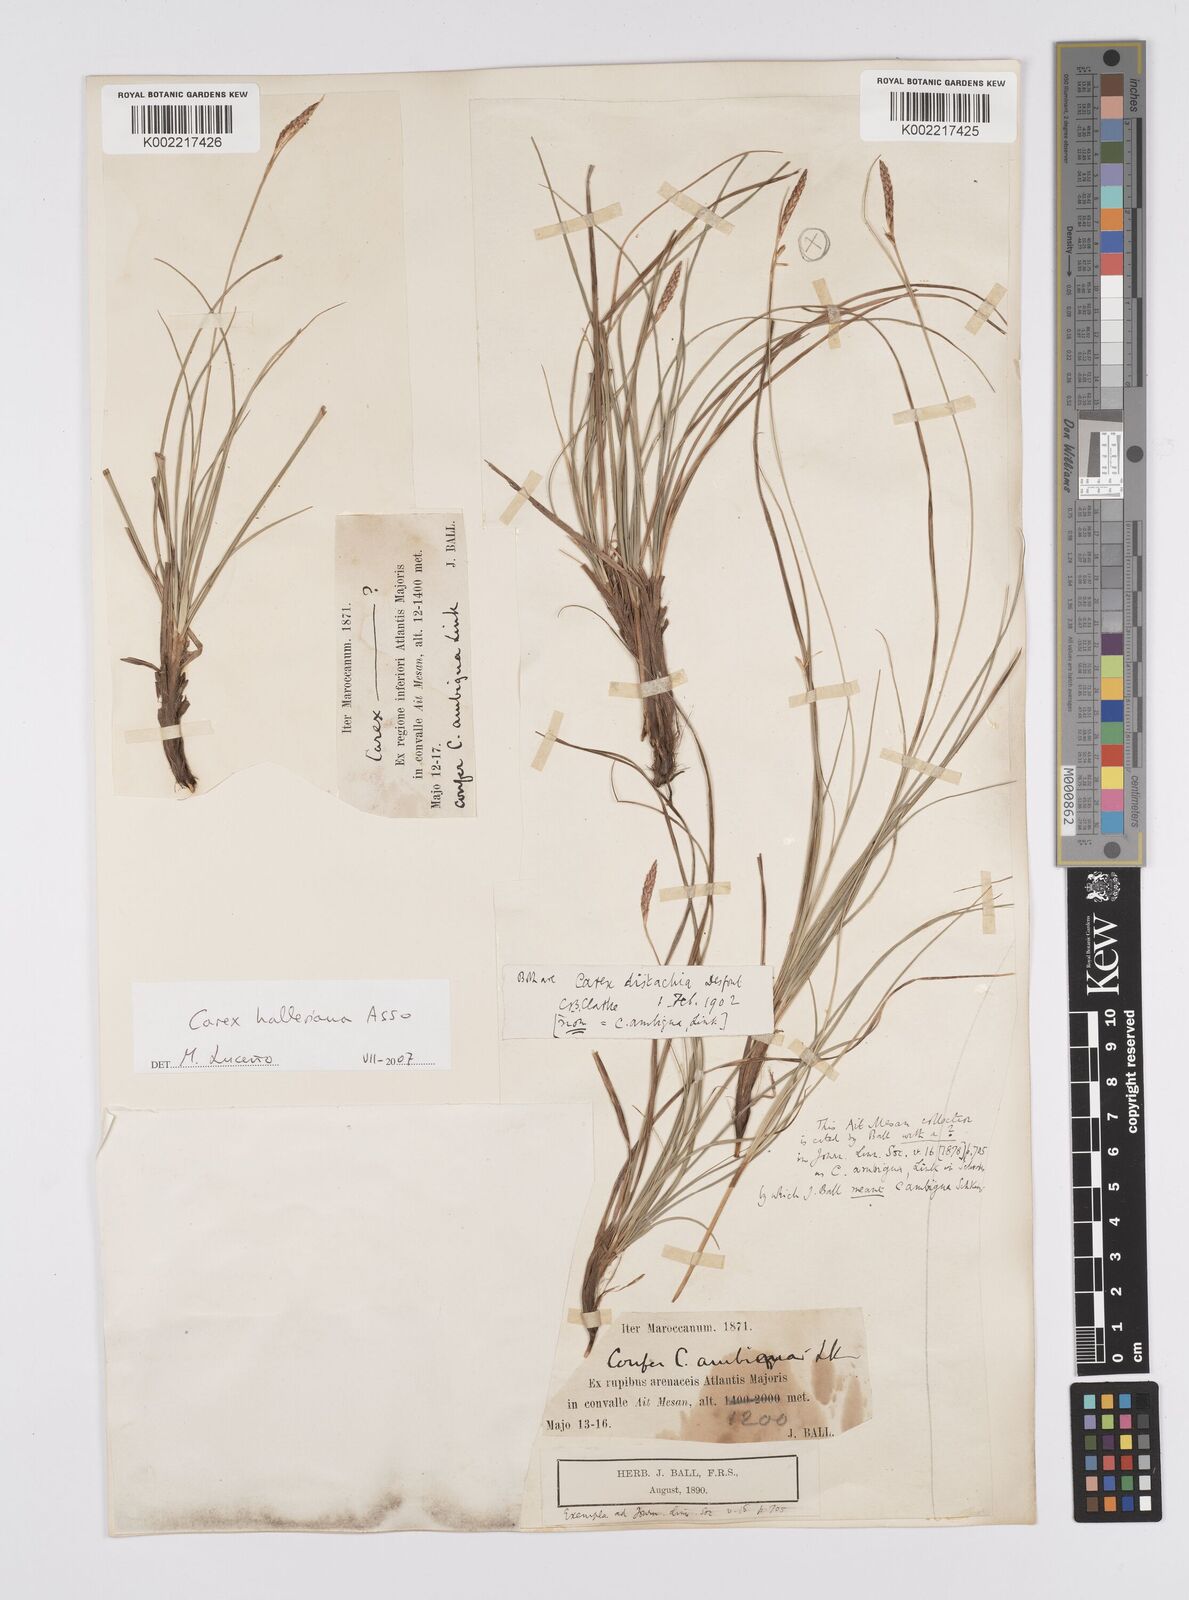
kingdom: Plantae
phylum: Tracheophyta
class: Liliopsida
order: Poales
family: Cyperaceae
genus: Carex
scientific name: Carex halleriana
